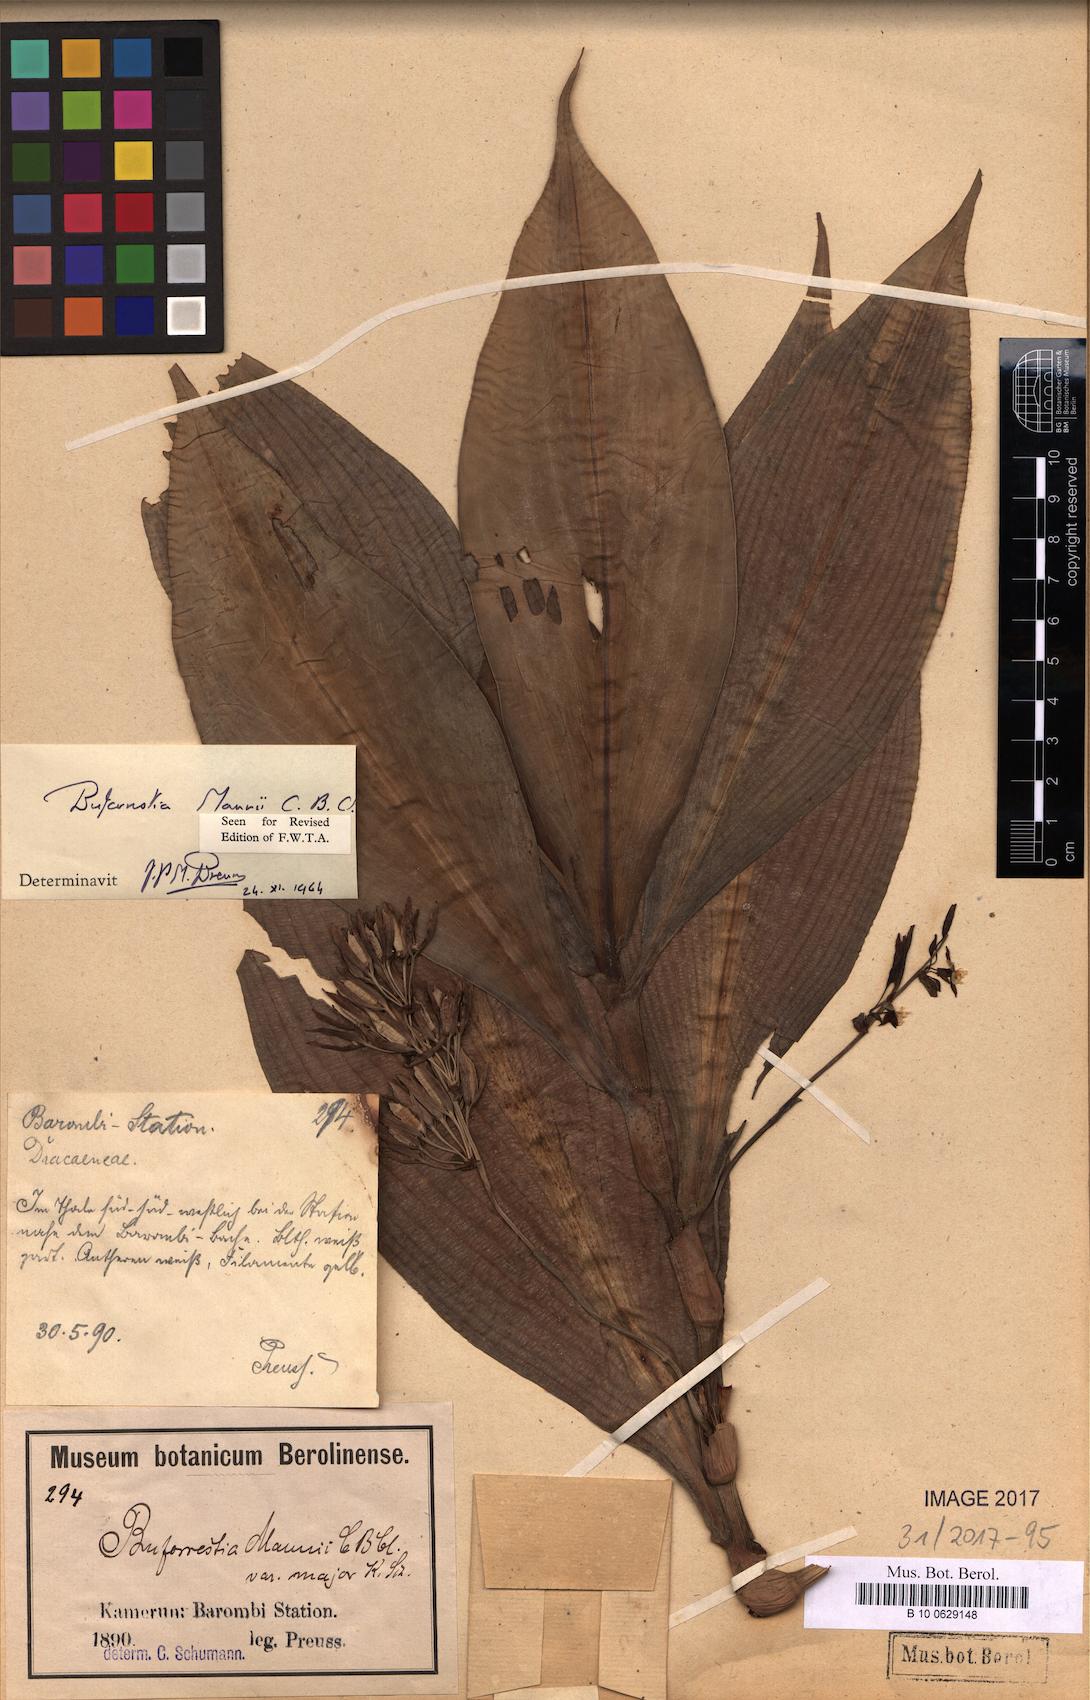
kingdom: Plantae
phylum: Tracheophyta
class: Liliopsida
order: Commelinales
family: Commelinaceae
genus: Buforrestia
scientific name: Buforrestia mannii
